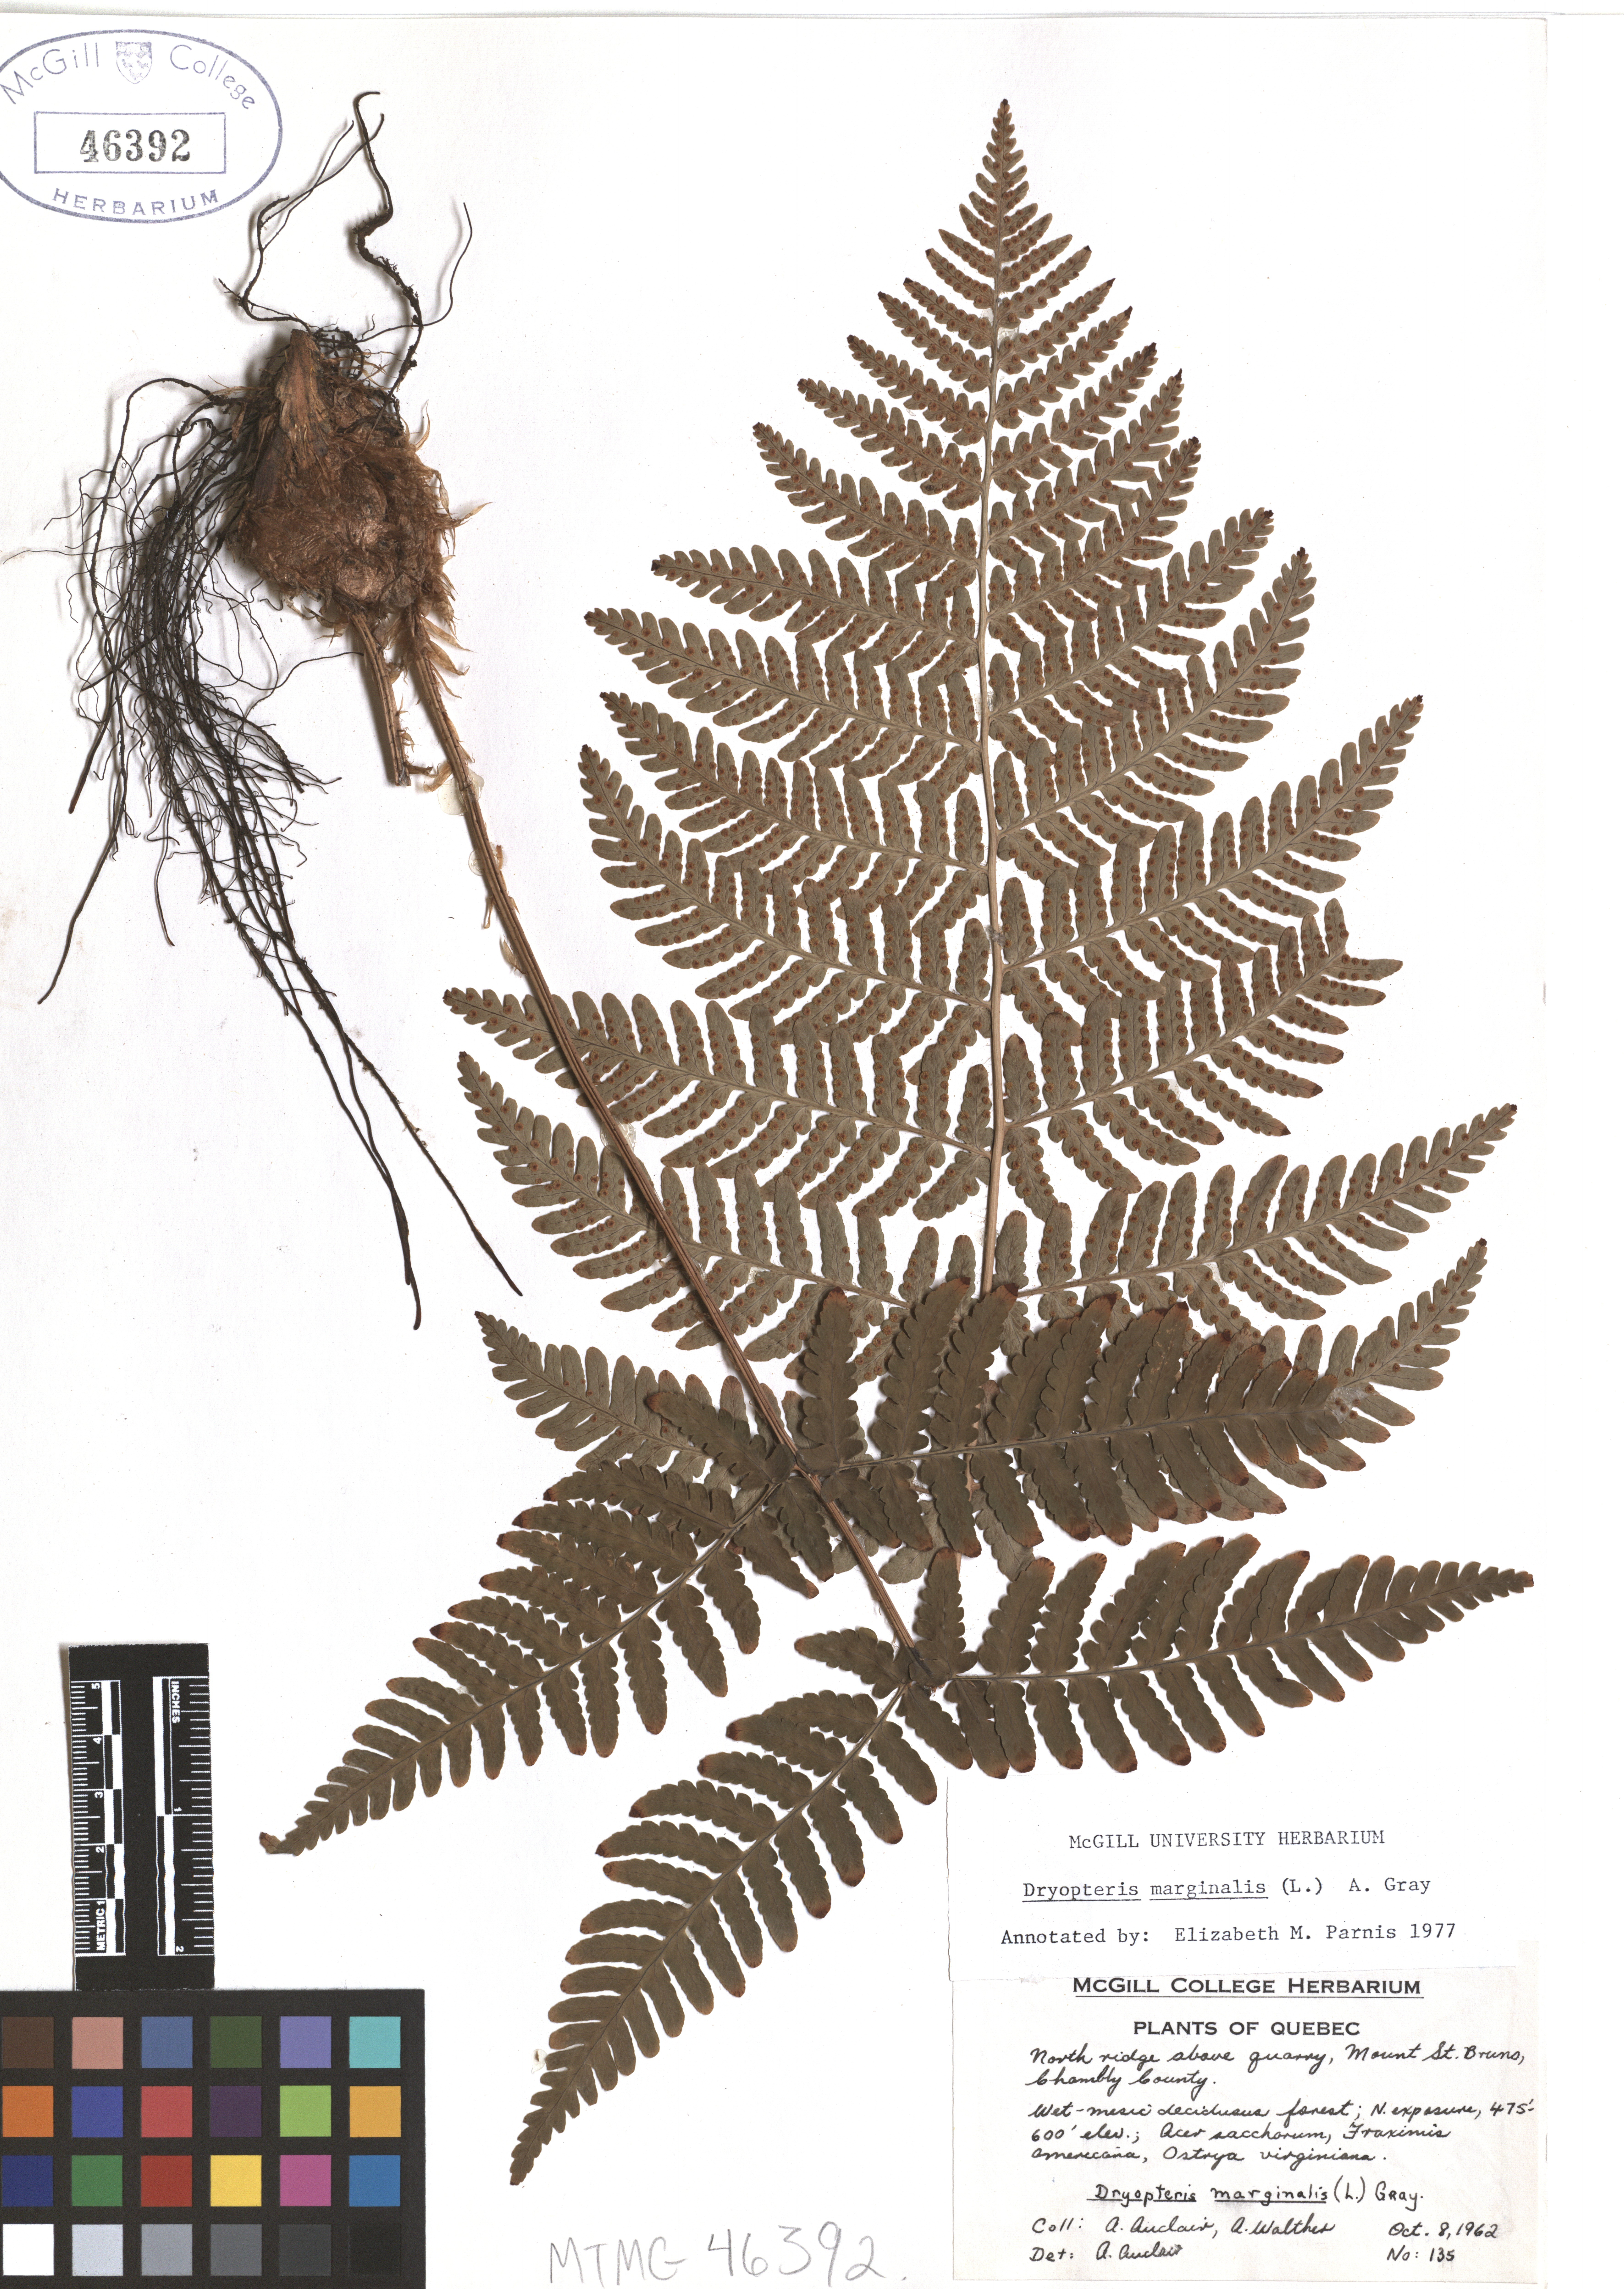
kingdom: Plantae
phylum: Tracheophyta
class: Polypodiopsida
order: Polypodiales
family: Dryopteridaceae
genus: Dryopteris
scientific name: Dryopteris marginalis
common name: Marginal wood fern
